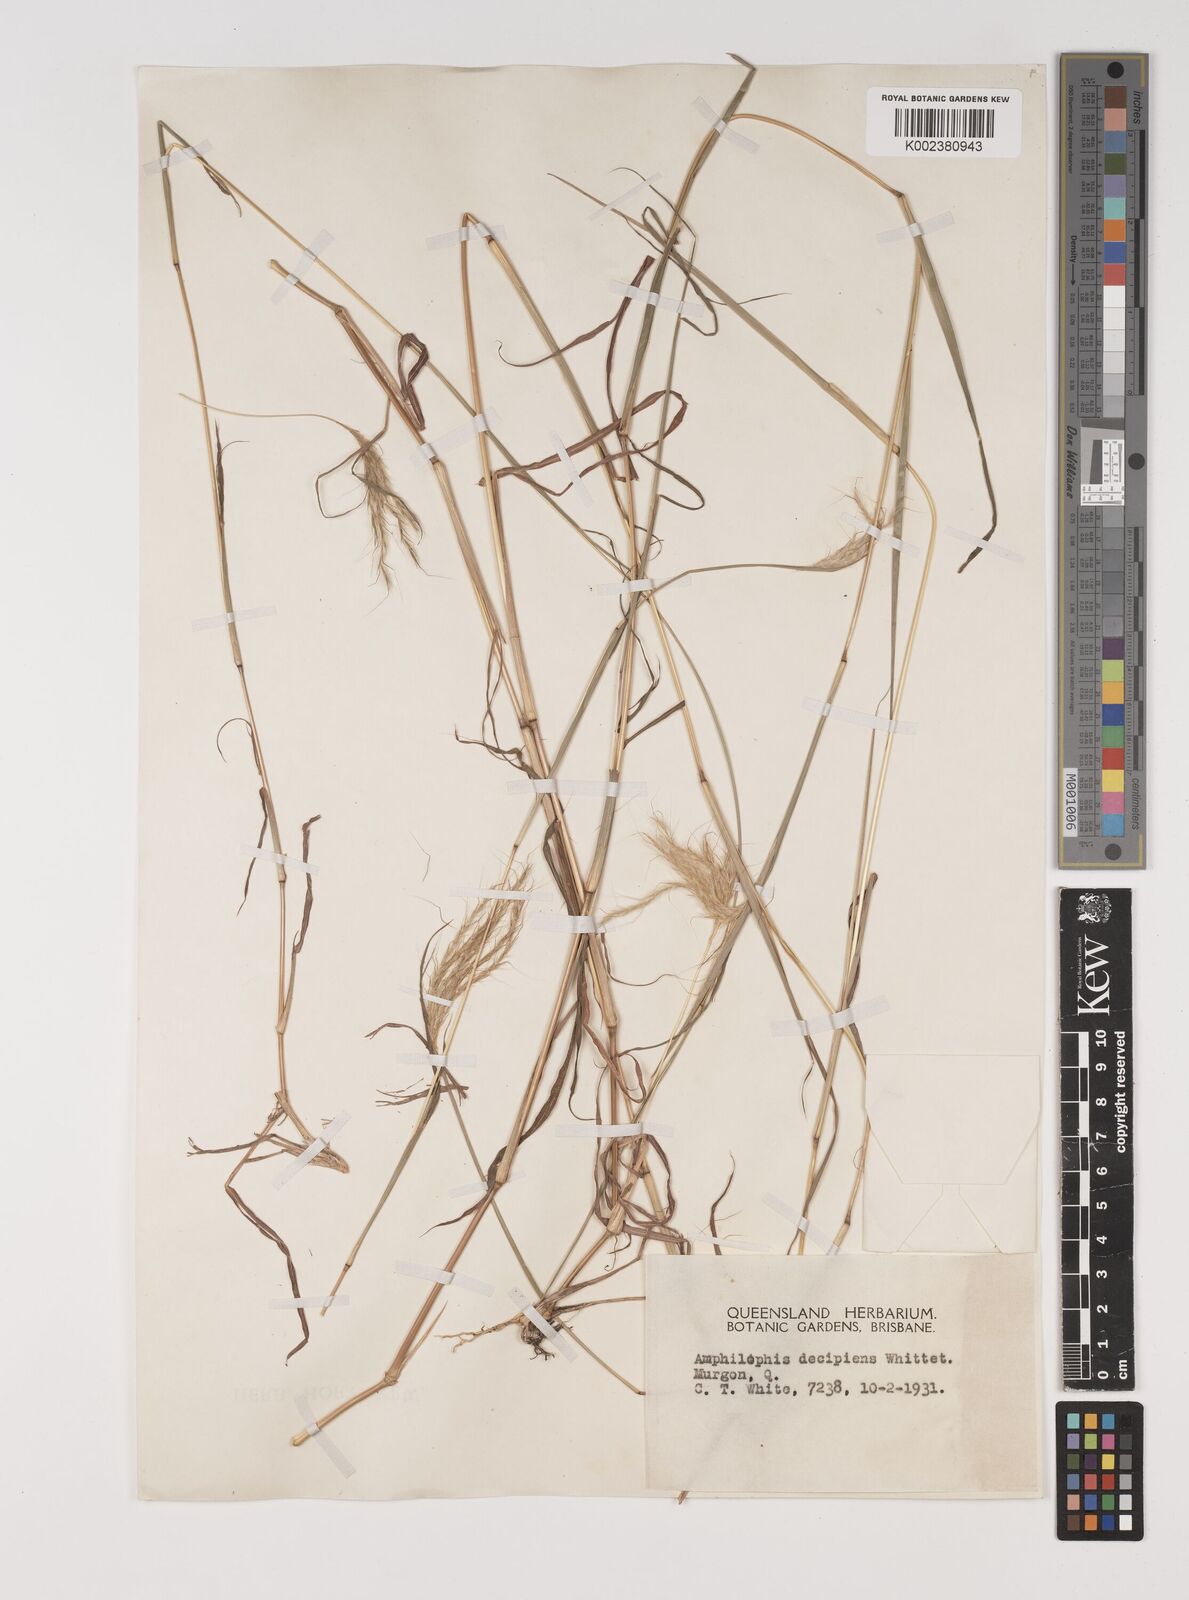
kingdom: Plantae
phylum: Tracheophyta
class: Liliopsida
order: Poales
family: Poaceae
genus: Bothriochloa
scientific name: Bothriochloa decipiens
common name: Pitted-bluegrass
